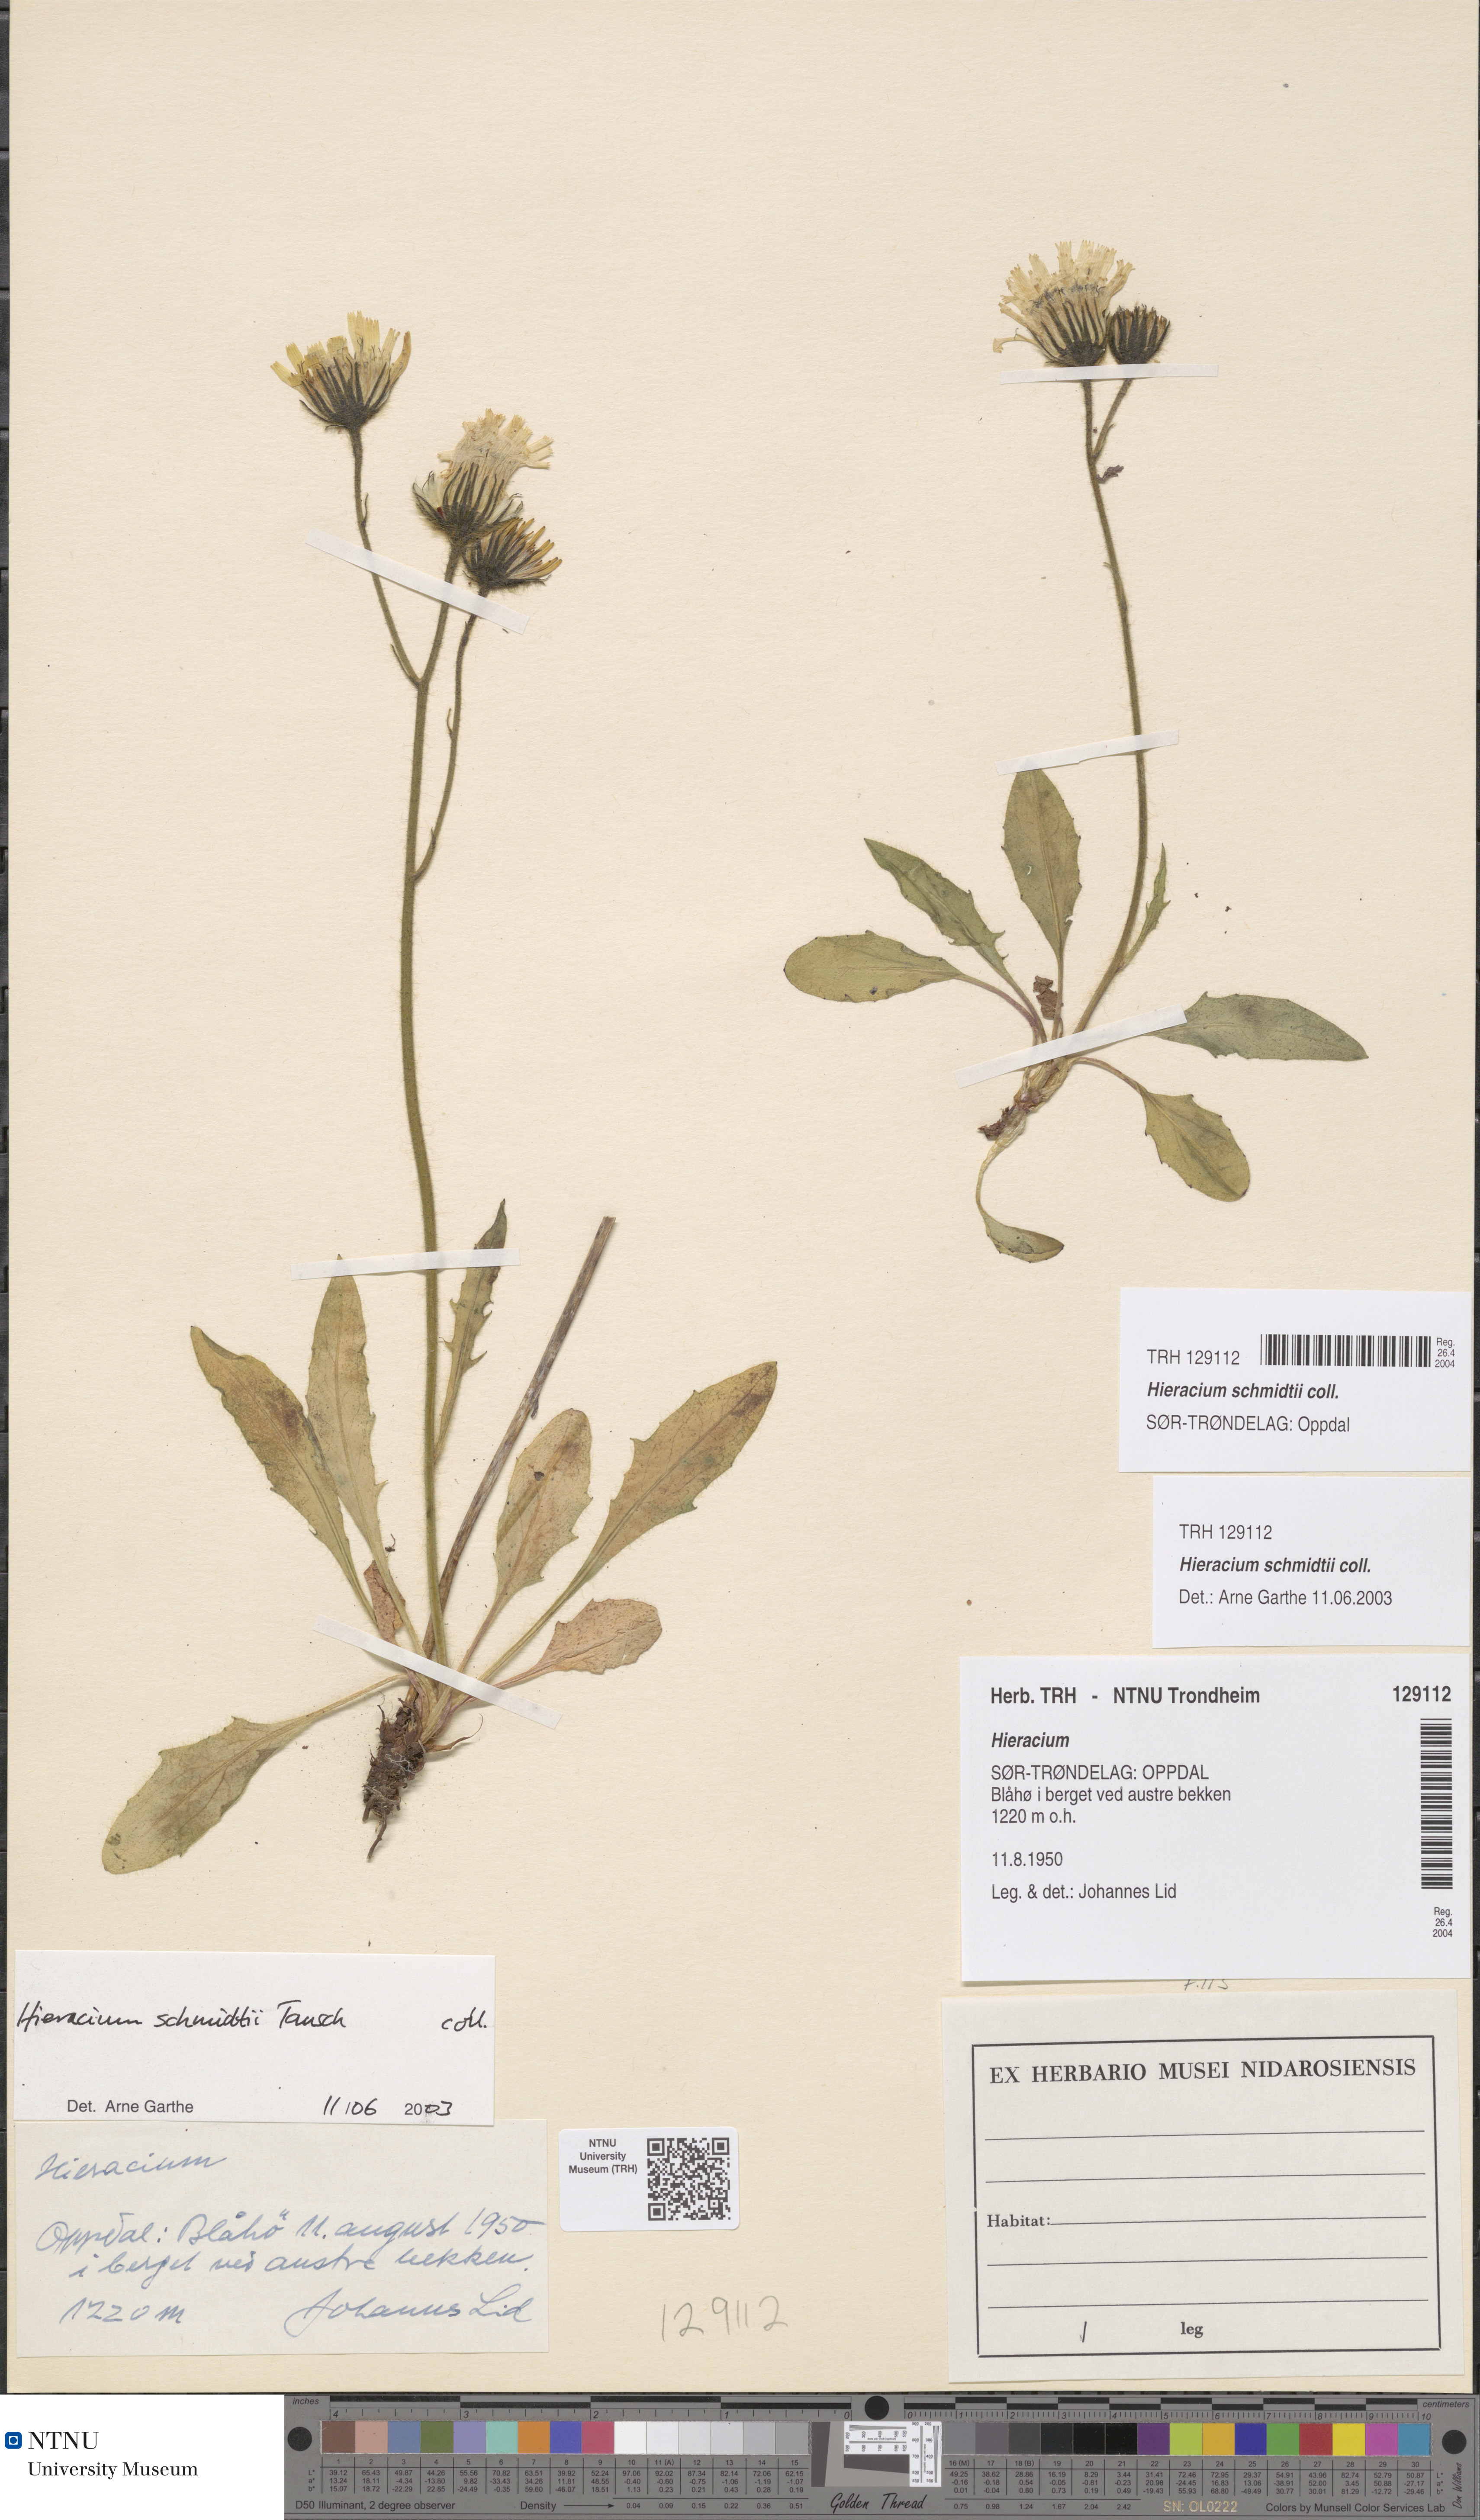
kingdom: Plantae
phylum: Tracheophyta
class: Magnoliopsida
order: Asterales
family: Asteraceae
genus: Hieracium
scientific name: Hieracium schmidtii
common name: Schmidt's hawkweed
